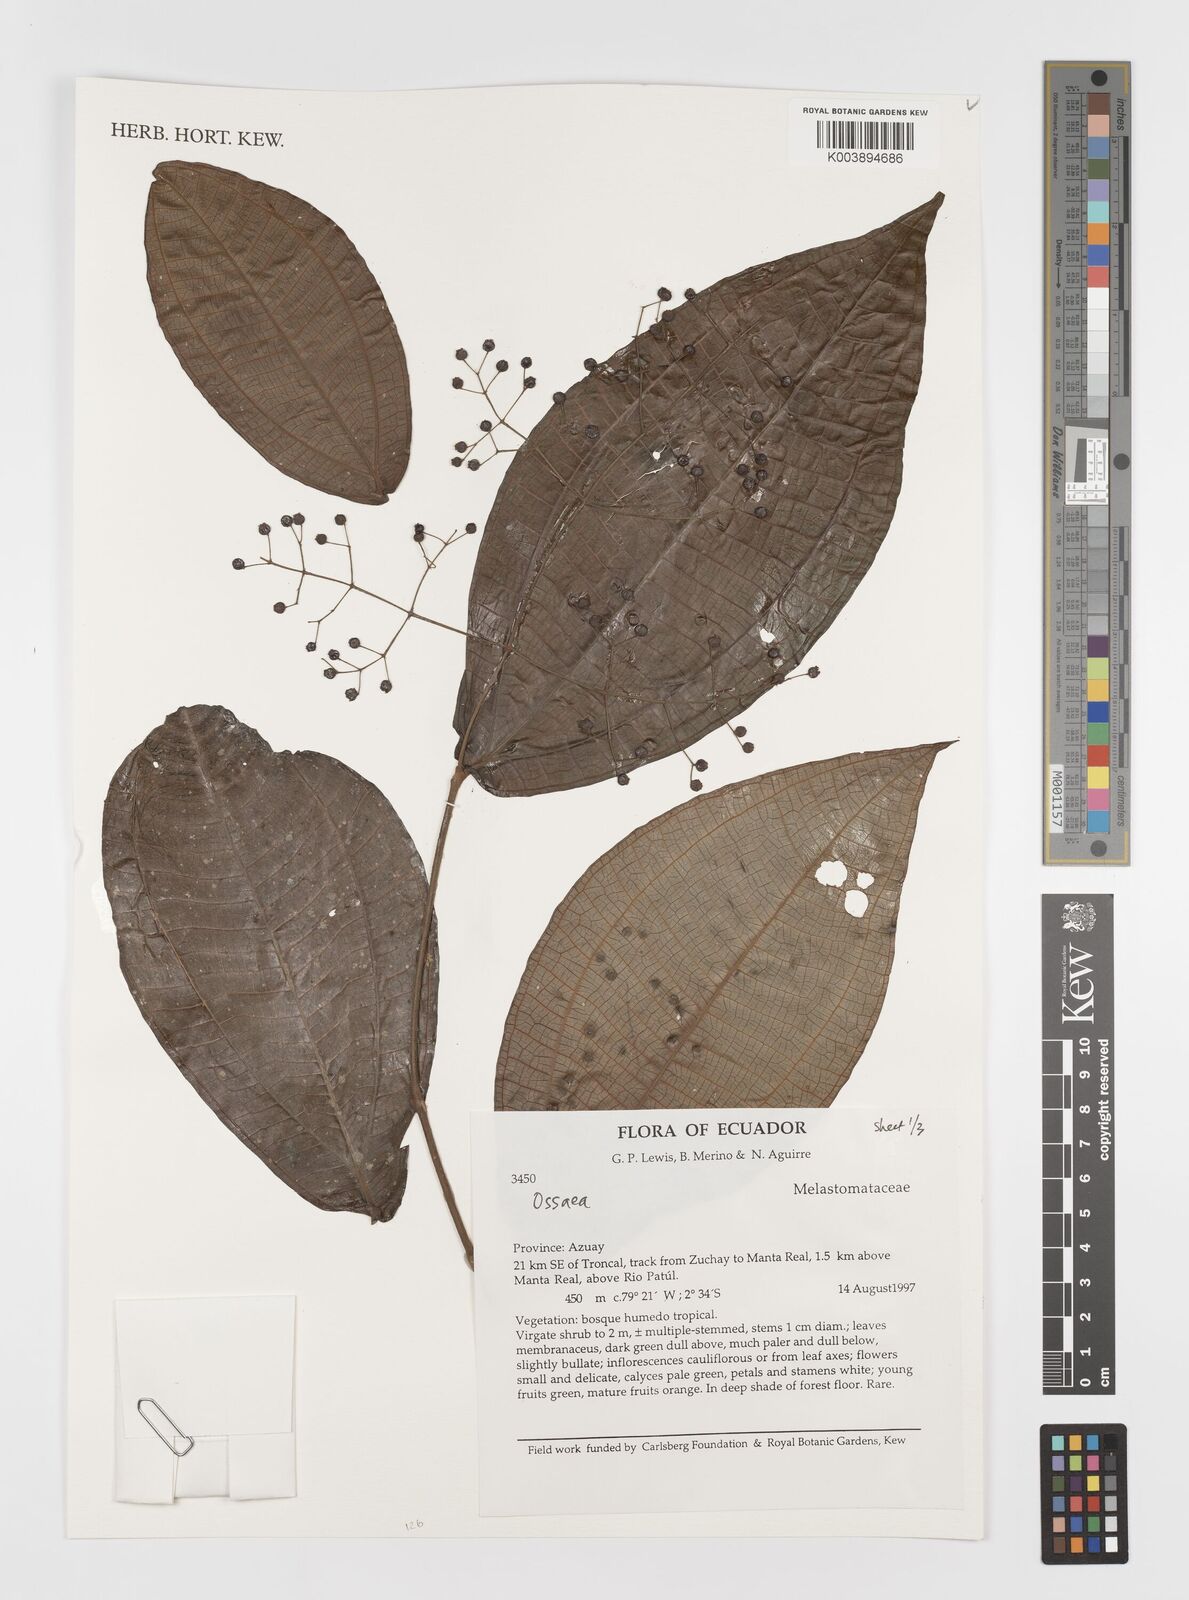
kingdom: Plantae
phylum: Tracheophyta
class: Magnoliopsida
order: Myrtales
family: Melastomataceae
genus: Ossaea
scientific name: Ossaea
